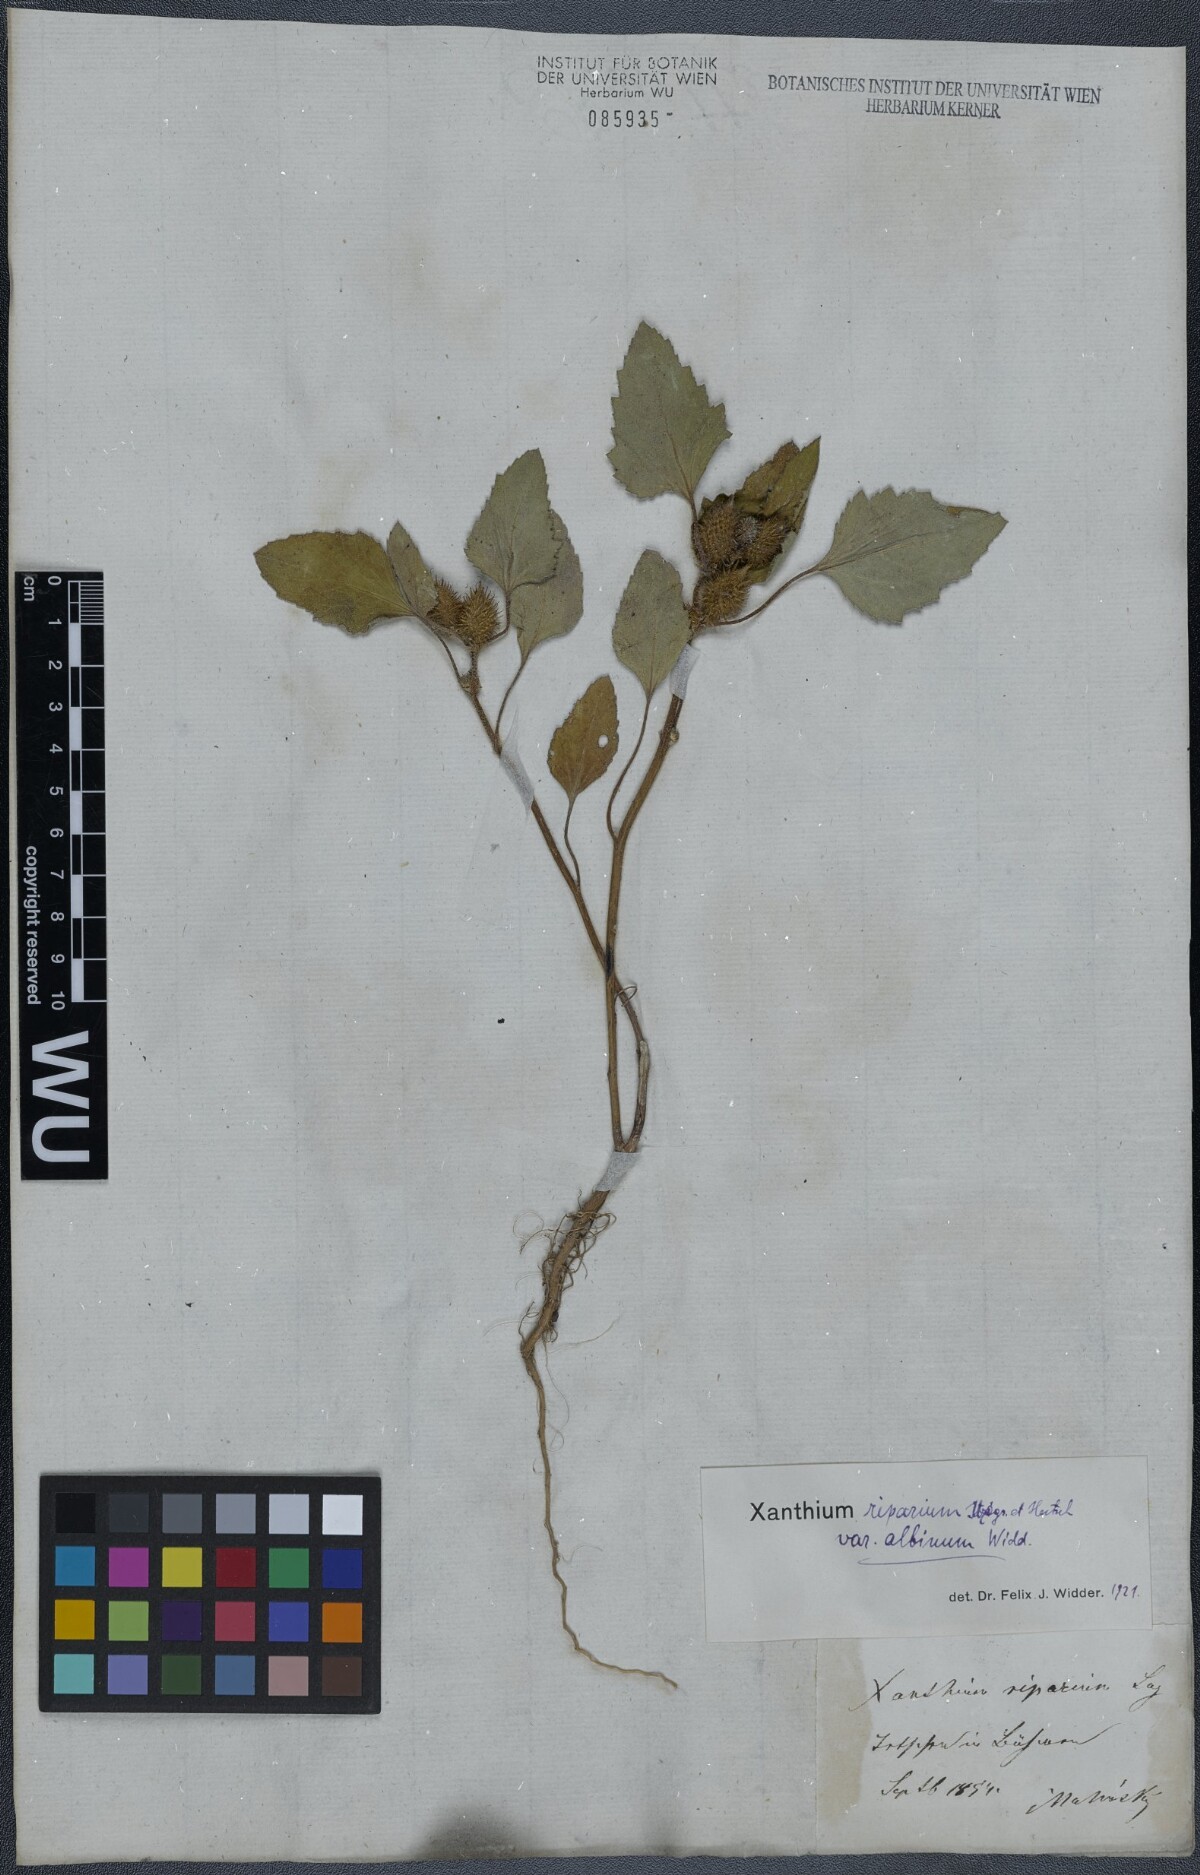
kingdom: Plantae
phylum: Tracheophyta
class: Magnoliopsida
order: Asterales
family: Asteraceae
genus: Xanthium
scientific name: Xanthium orientale
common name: Californian burr
